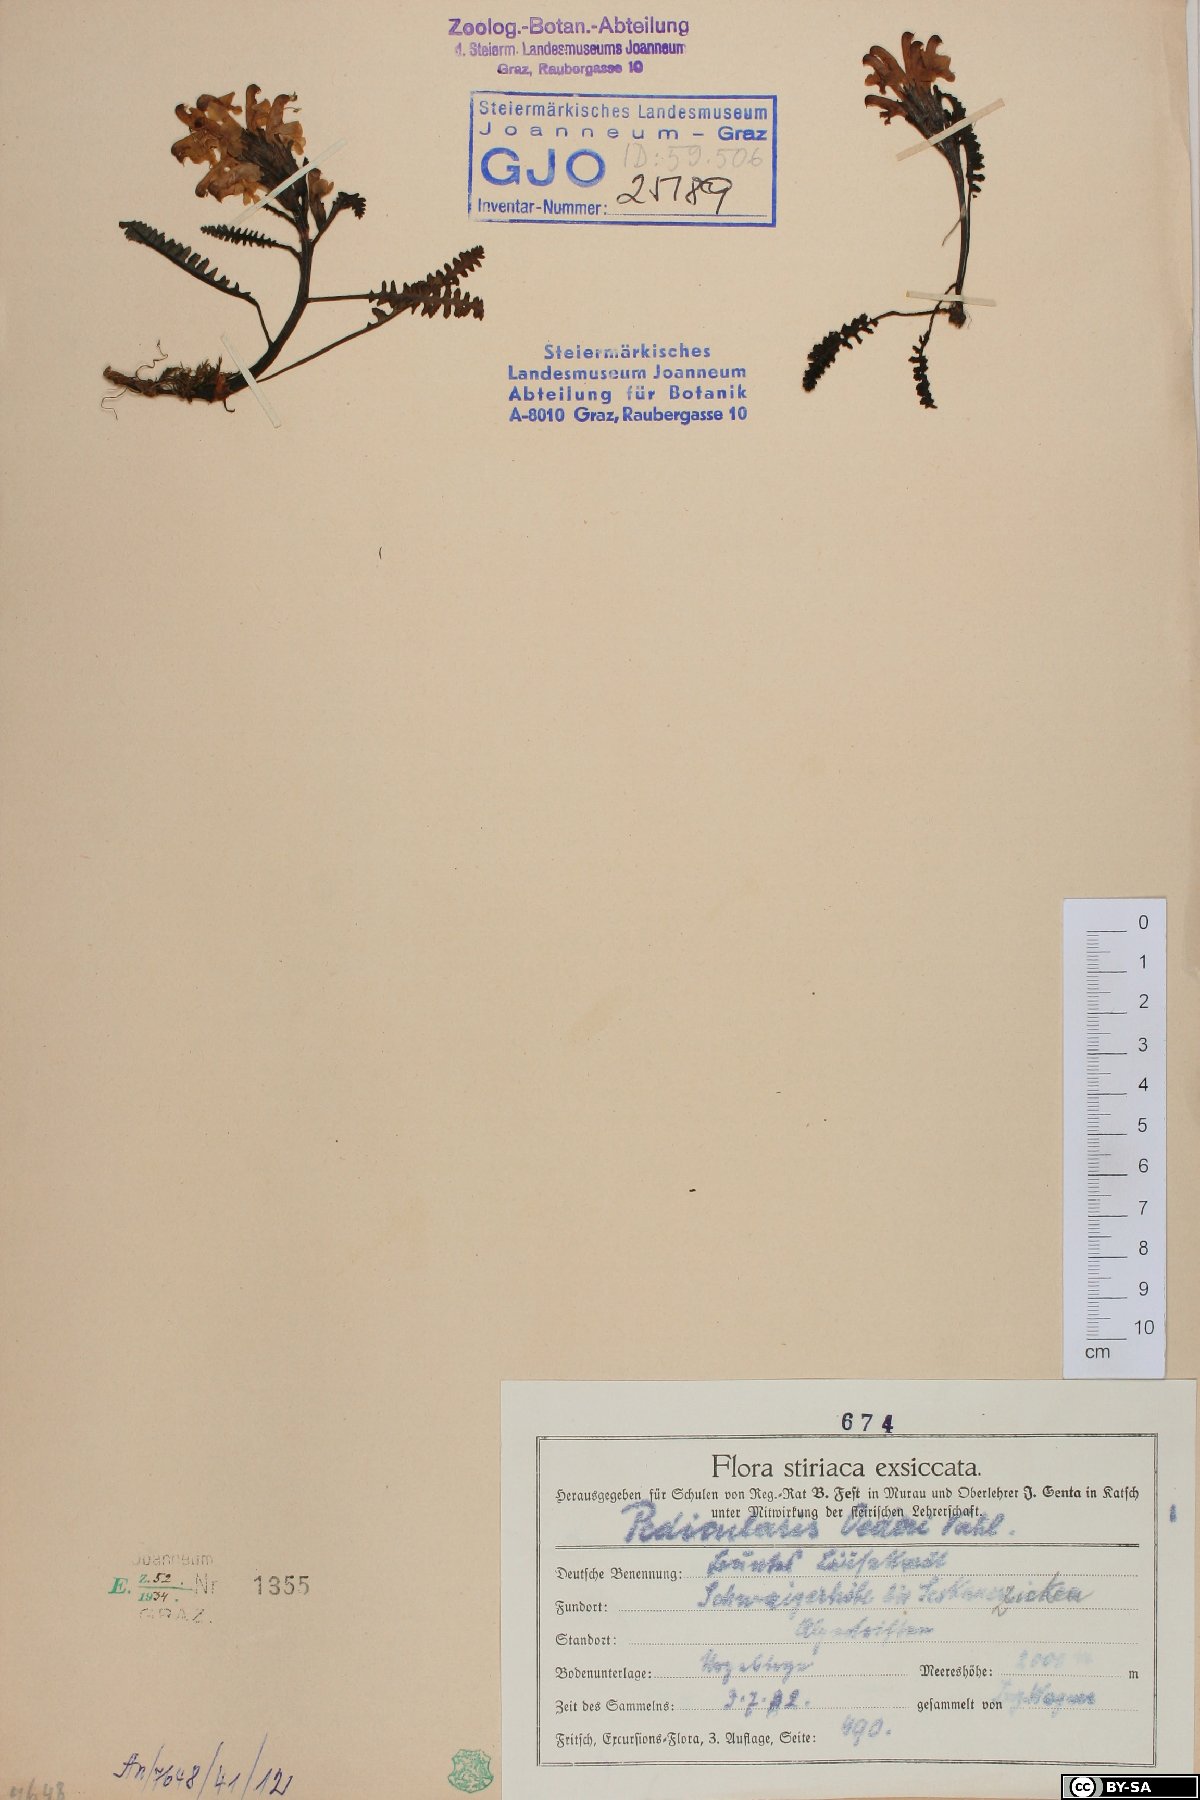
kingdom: Plantae
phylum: Tracheophyta
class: Magnoliopsida
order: Lamiales
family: Orobanchaceae
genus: Pedicularis
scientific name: Pedicularis oederi
